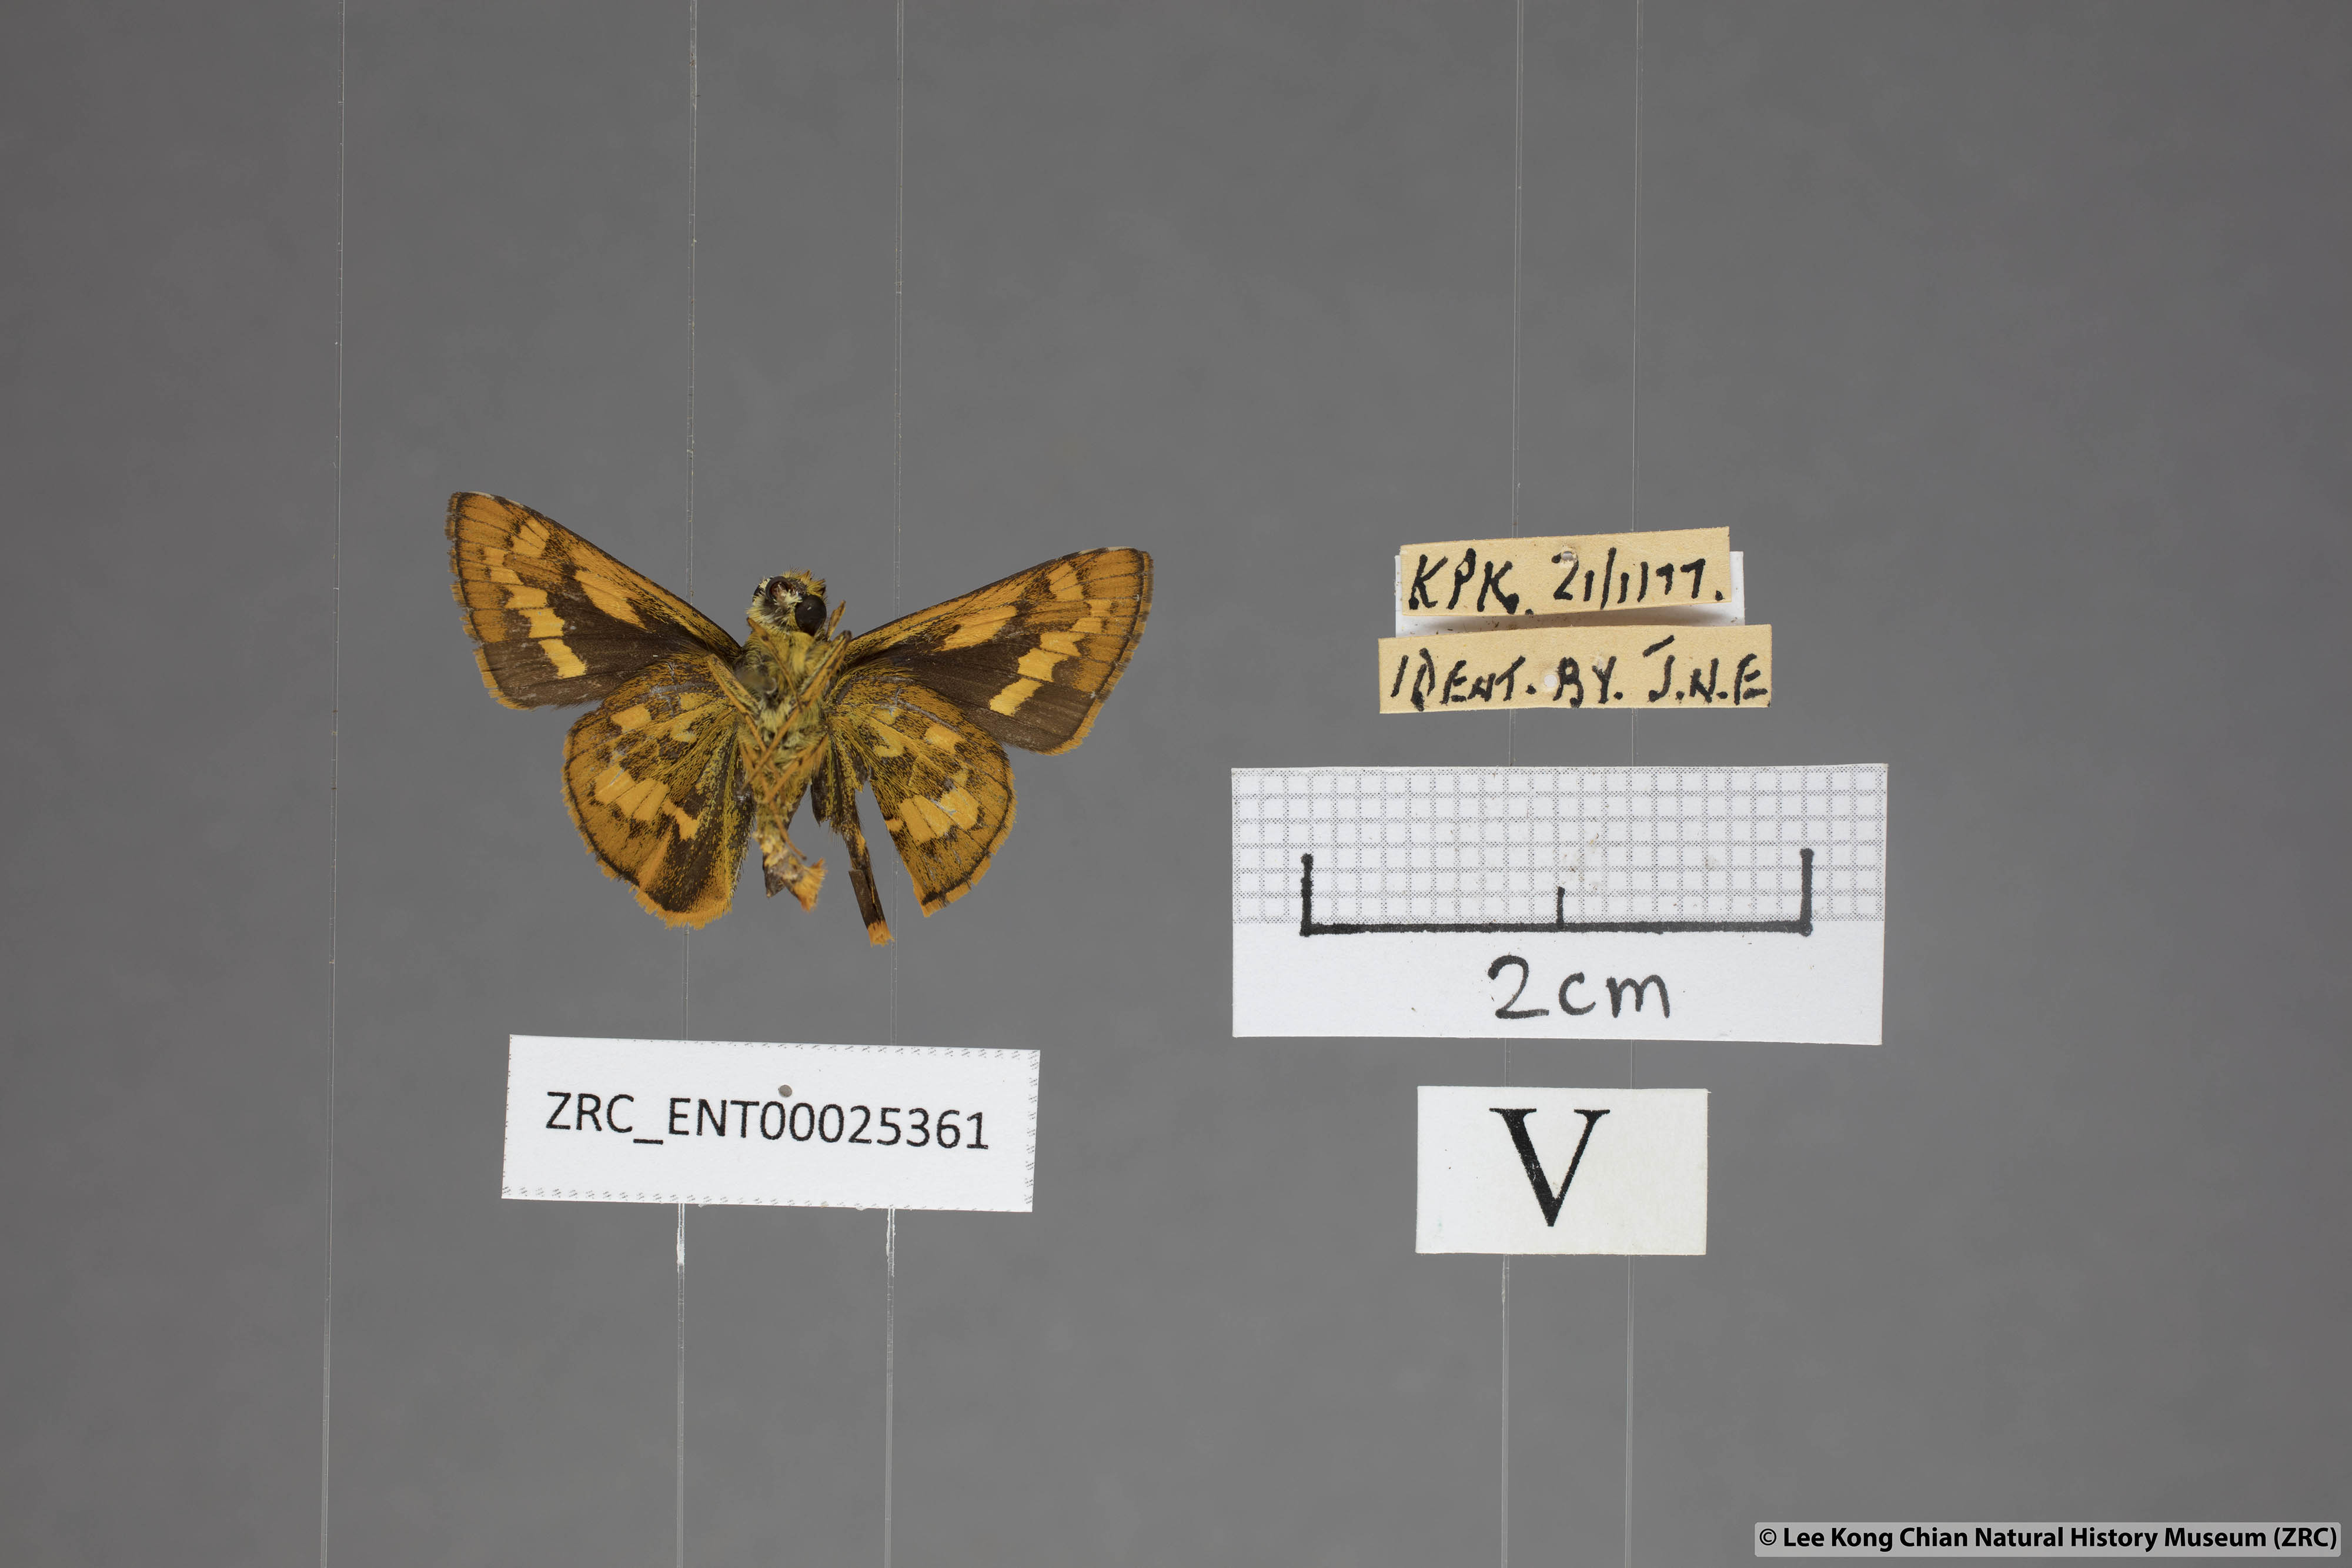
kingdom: Animalia
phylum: Arthropoda
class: Insecta
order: Lepidoptera
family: Hesperiidae
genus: Potanthus
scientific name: Potanthus juno
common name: Overlapped dart
